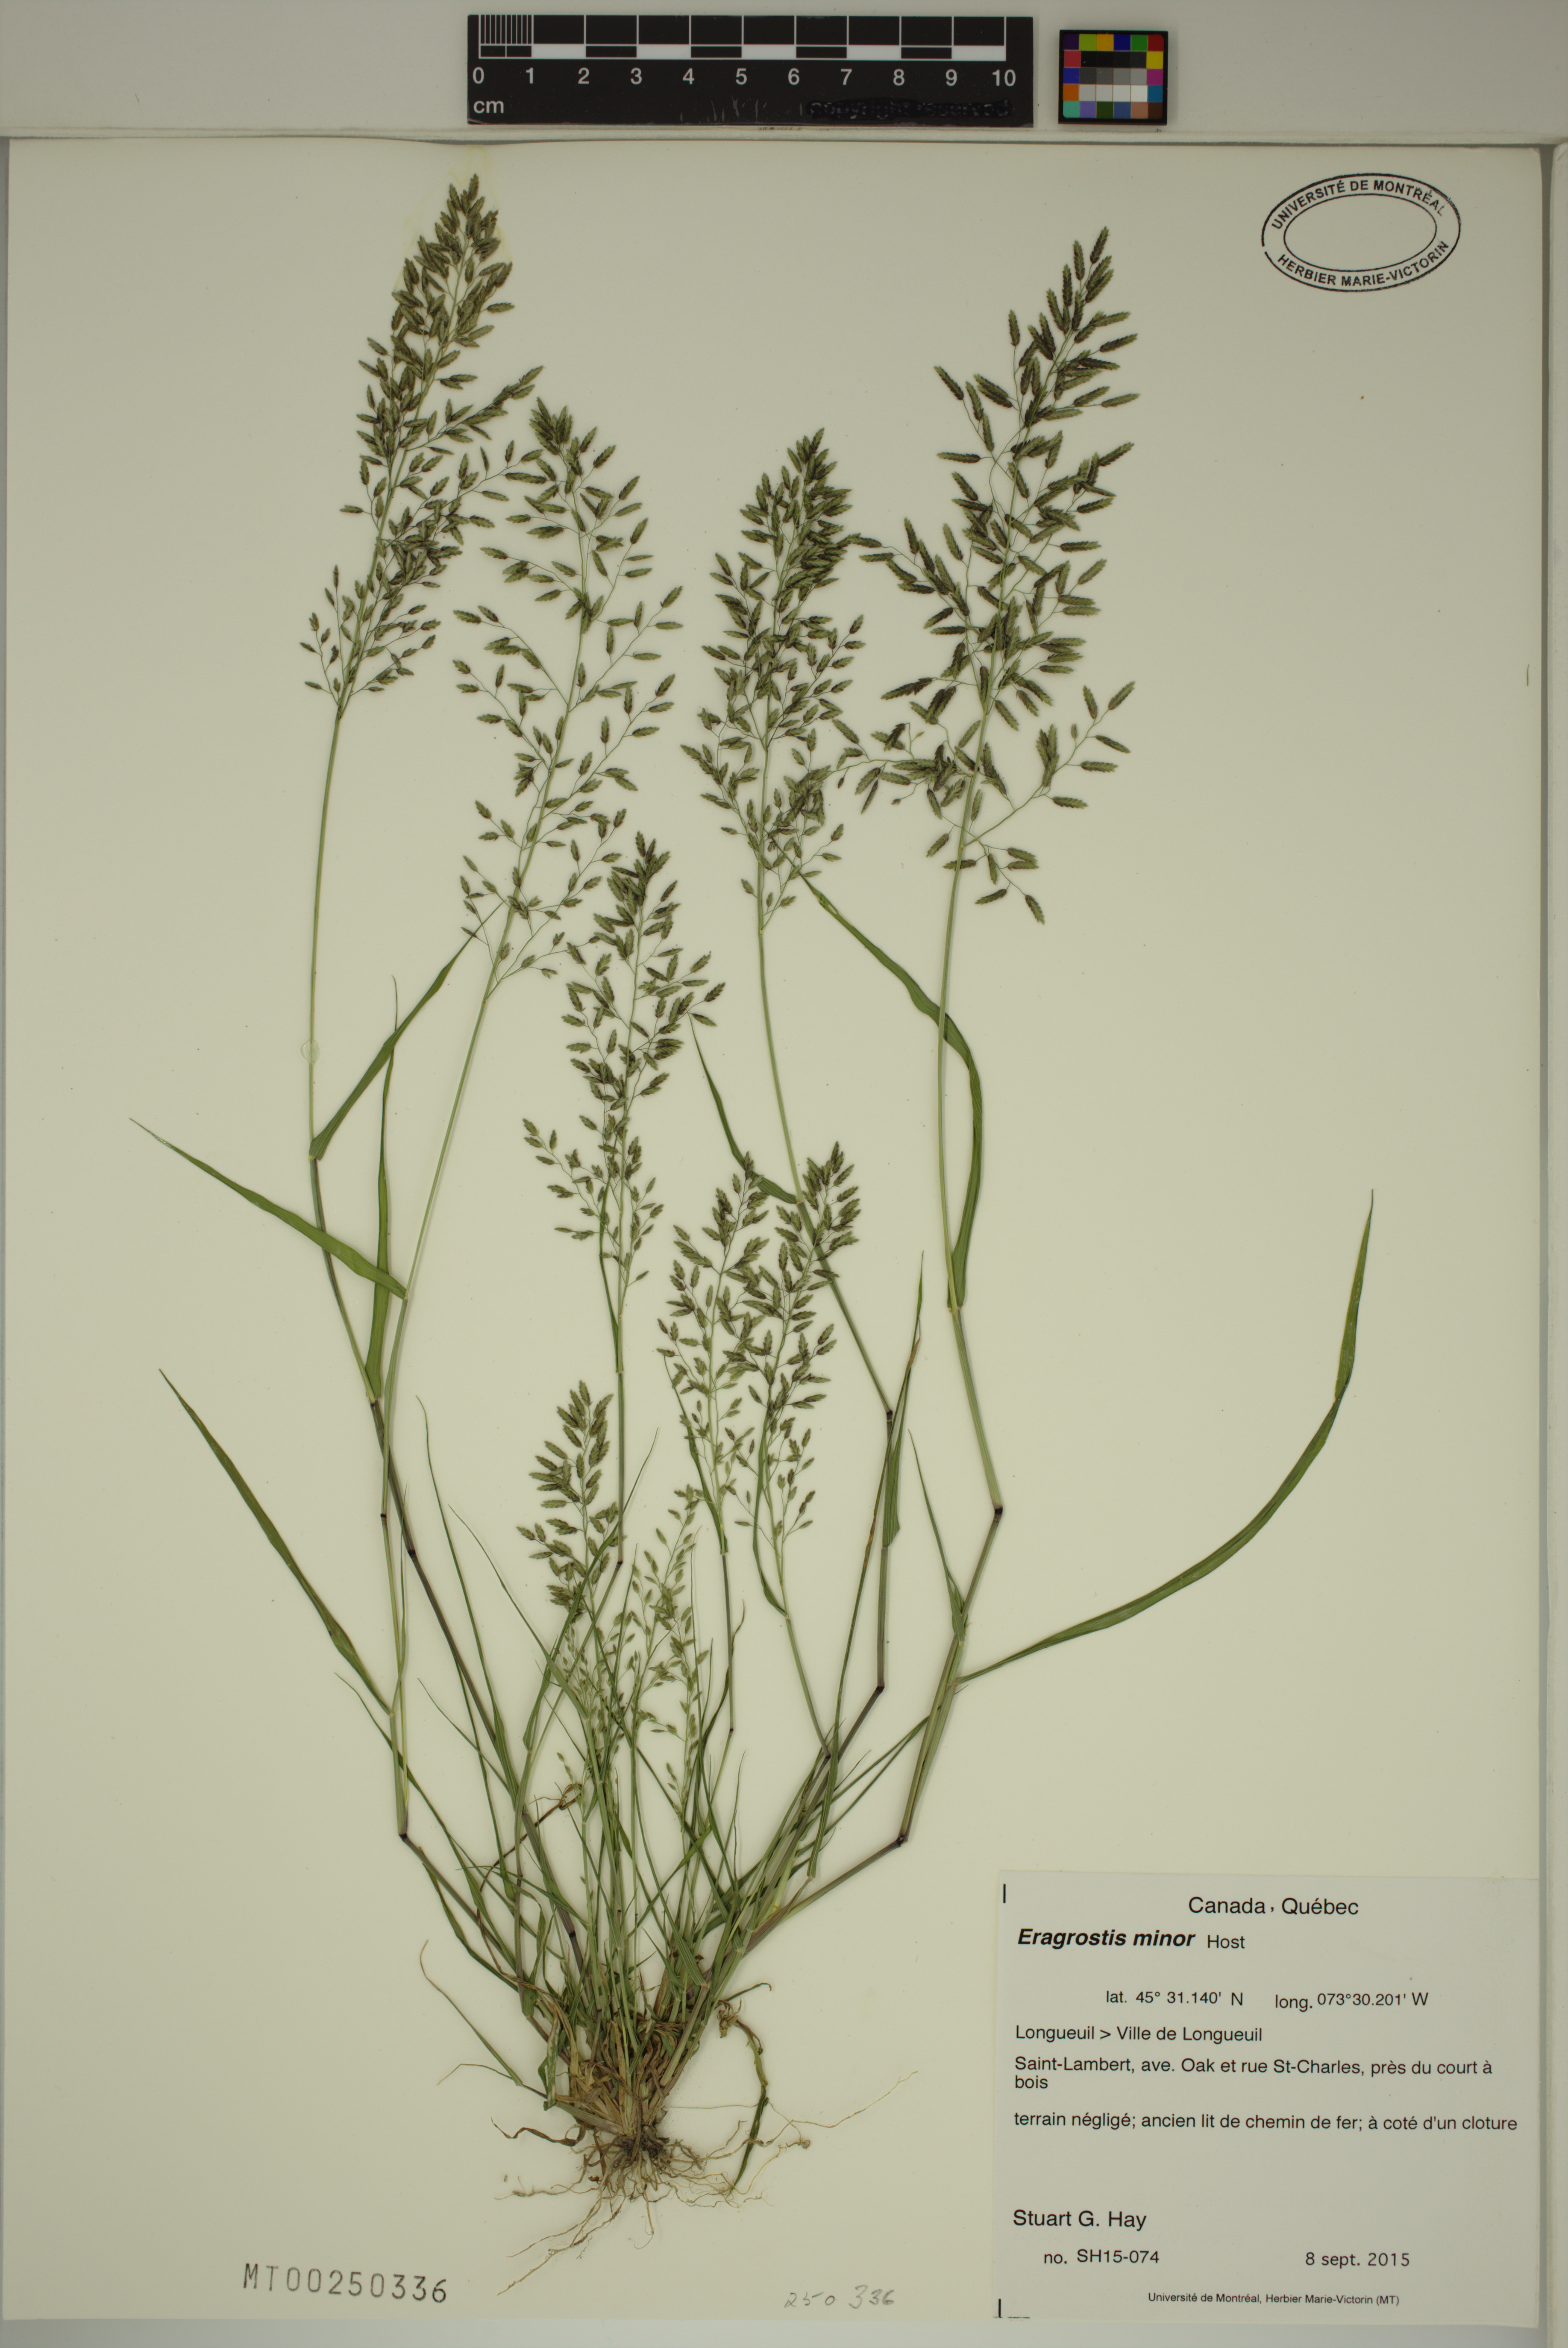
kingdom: Plantae
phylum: Tracheophyta
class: Liliopsida
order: Poales
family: Poaceae
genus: Eragrostis
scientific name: Eragrostis minor
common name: Small love-grass
